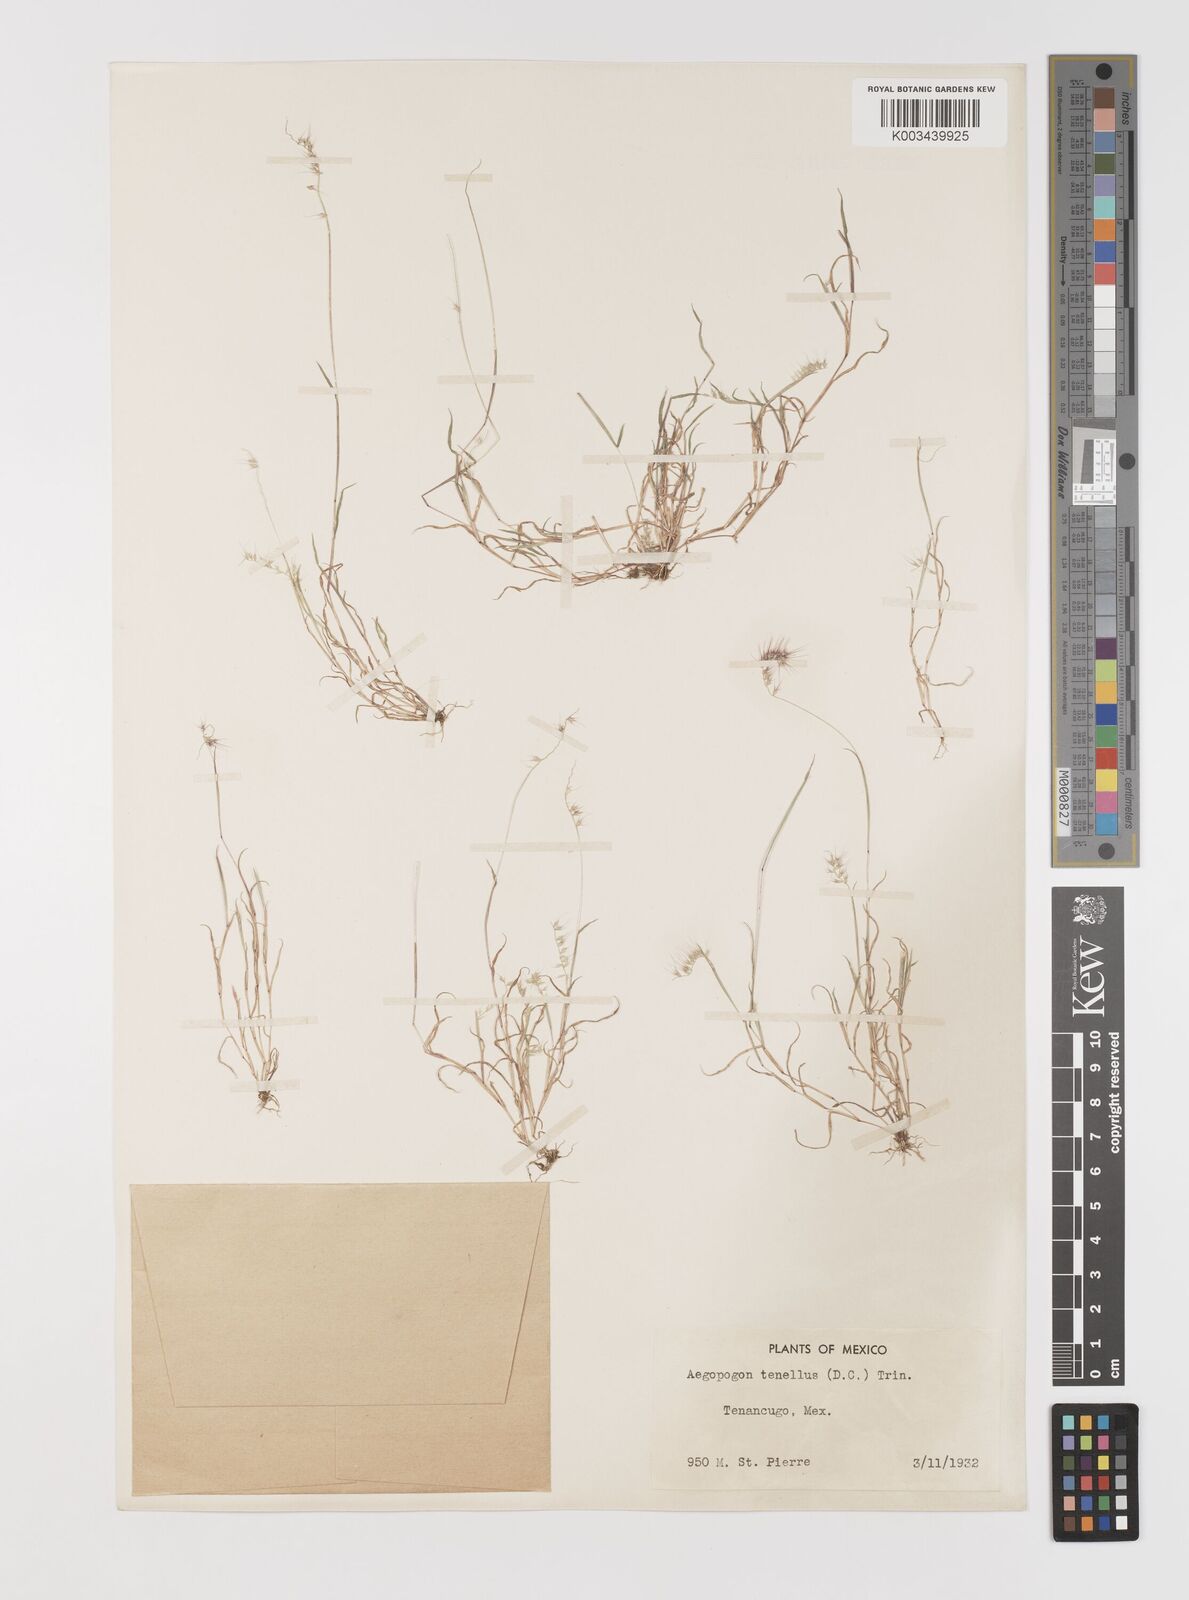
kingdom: Plantae
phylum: Tracheophyta
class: Liliopsida
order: Poales
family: Poaceae
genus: Muhlenbergia
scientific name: Muhlenbergia uniseta
